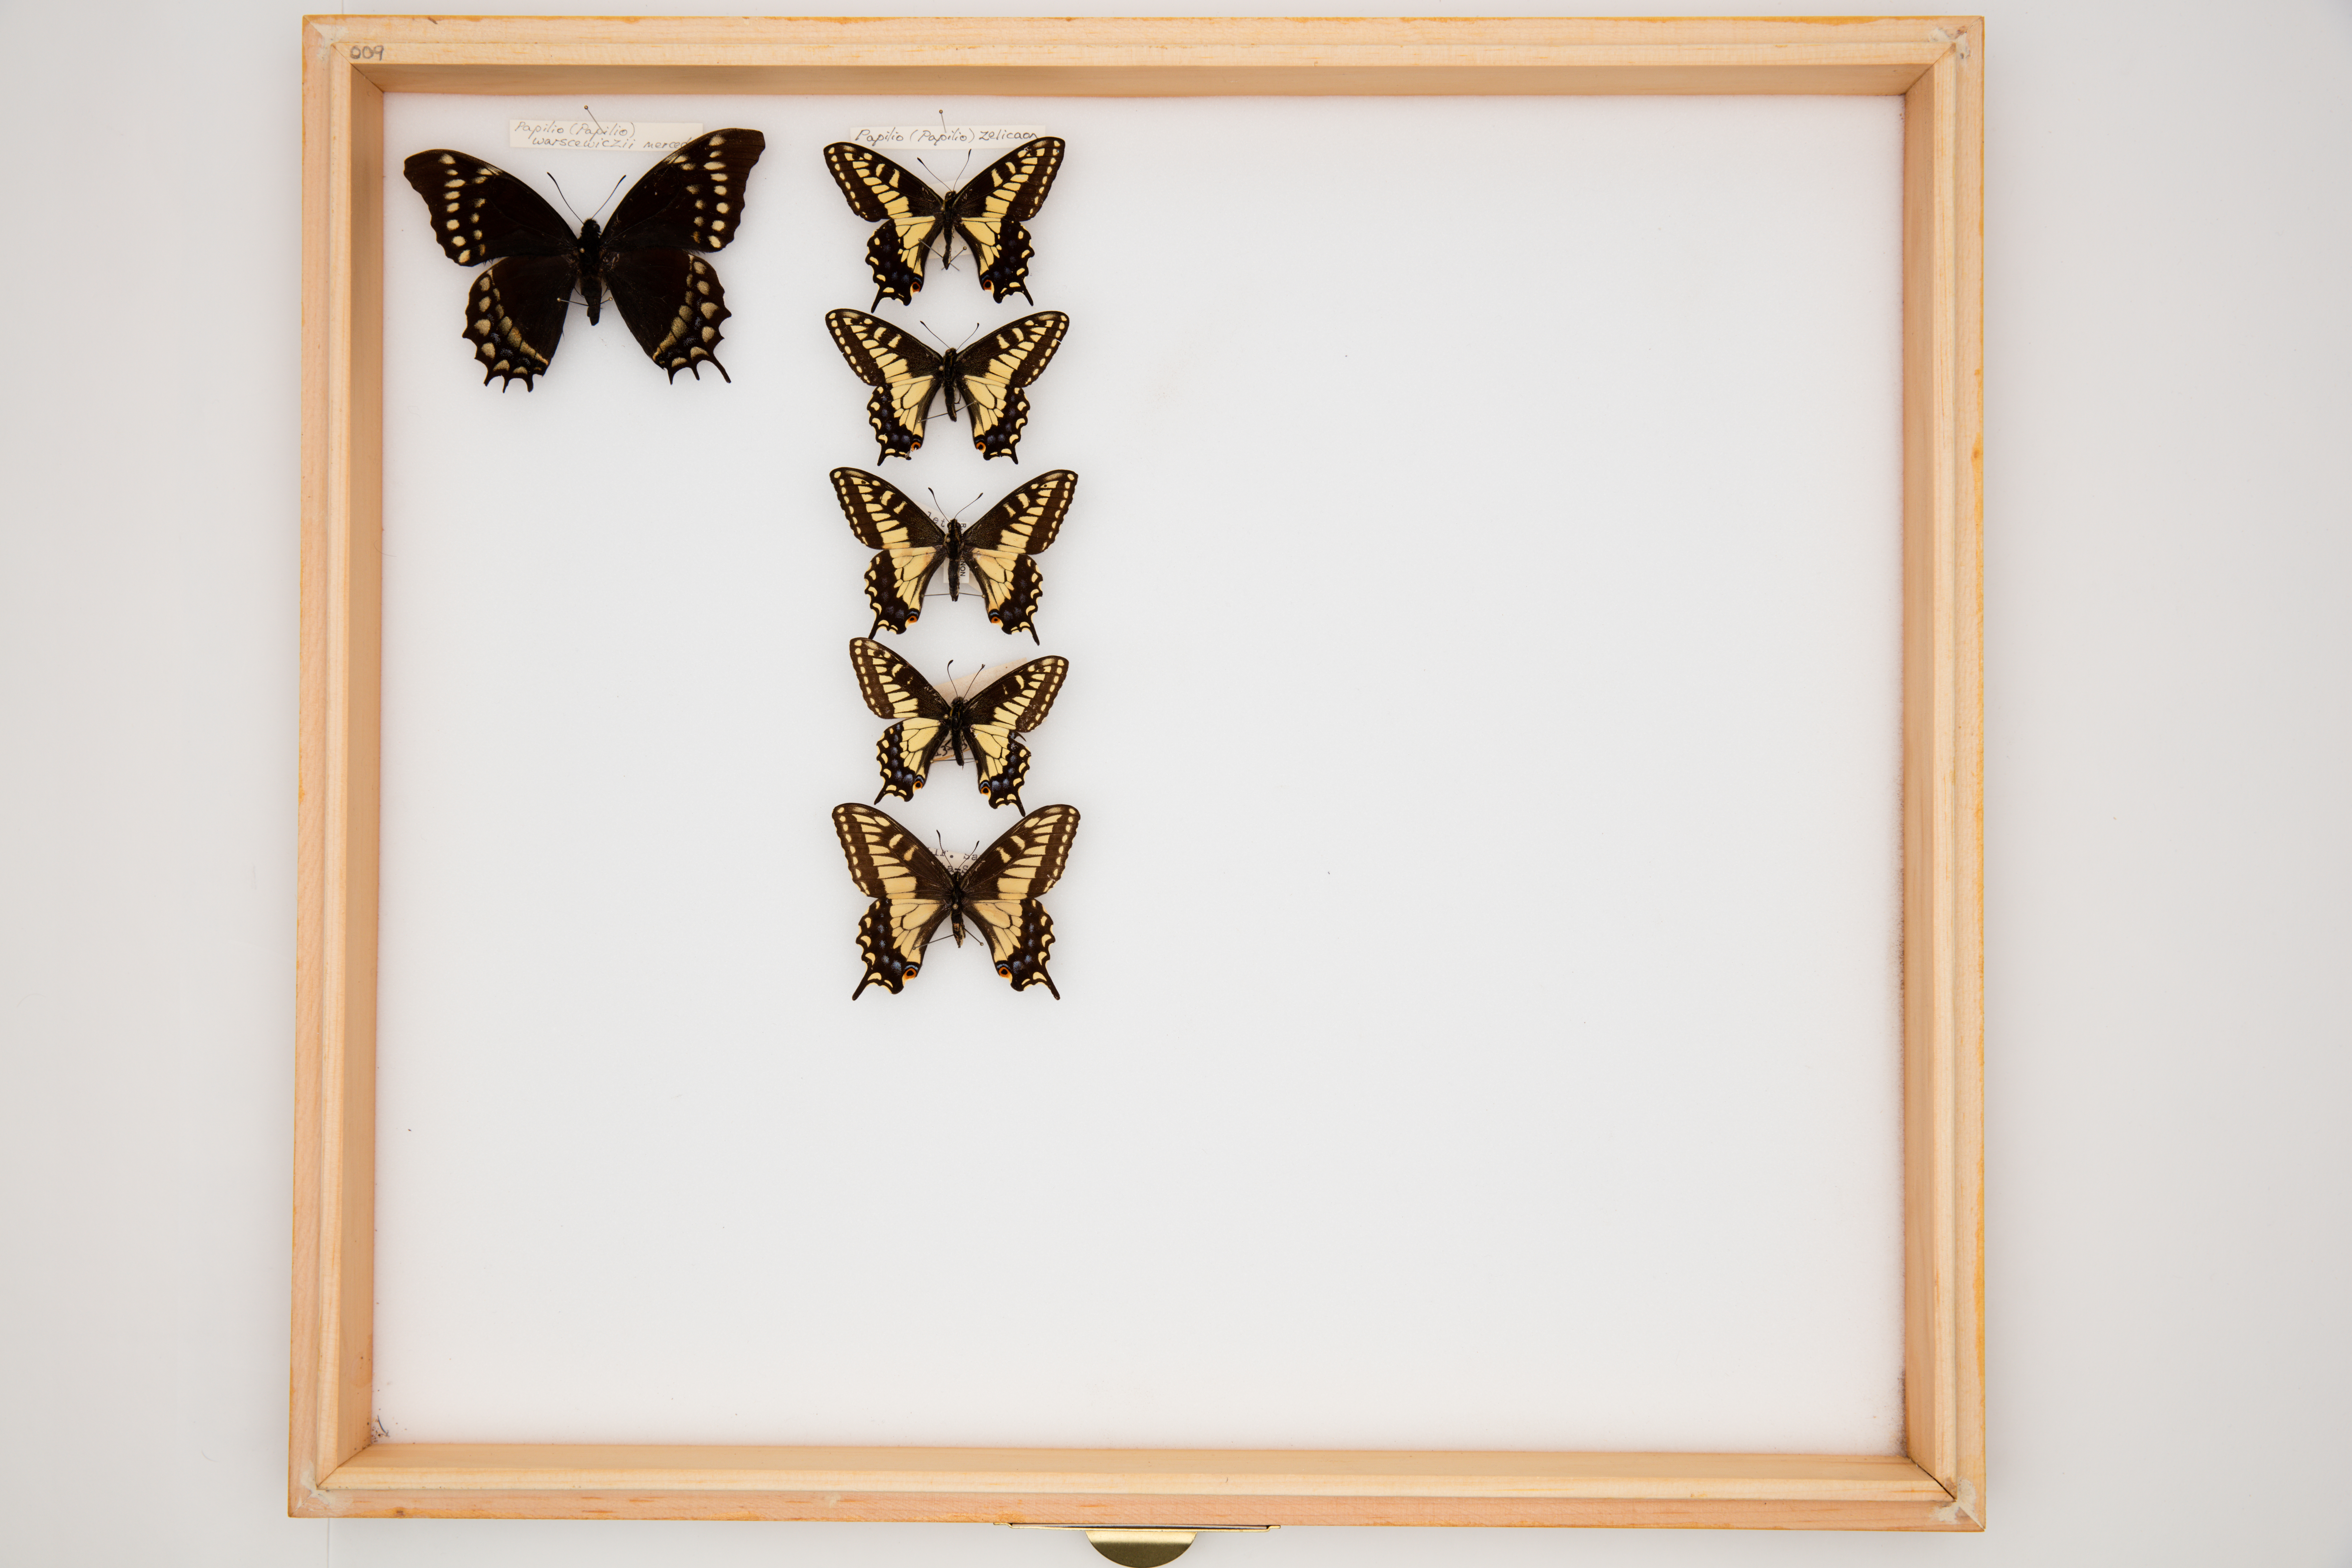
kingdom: Animalia
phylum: Arthropoda
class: Insecta
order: Lepidoptera
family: Papilionidae
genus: Papilio
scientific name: Papilio zelicaon
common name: Anise swallowtail
